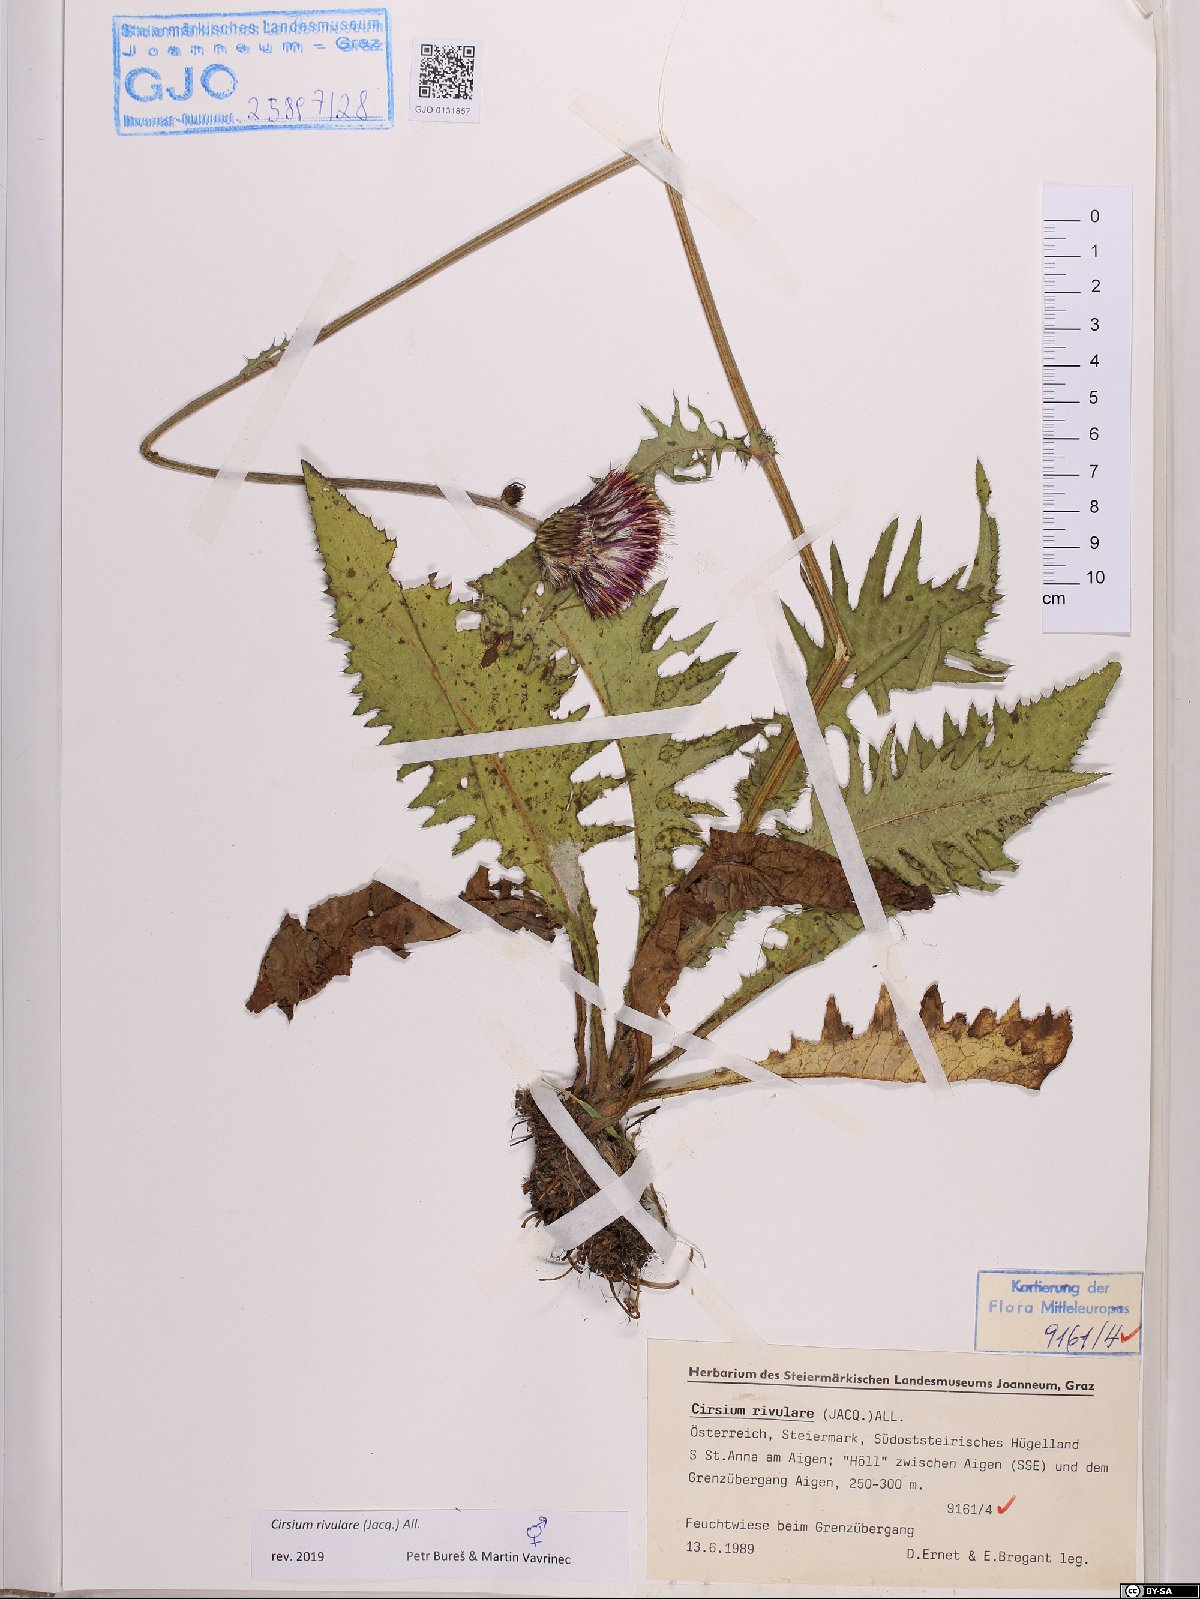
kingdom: Plantae
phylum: Tracheophyta
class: Magnoliopsida
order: Asterales
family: Asteraceae
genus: Cirsium
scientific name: Cirsium rivulare
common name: Brook thistle
